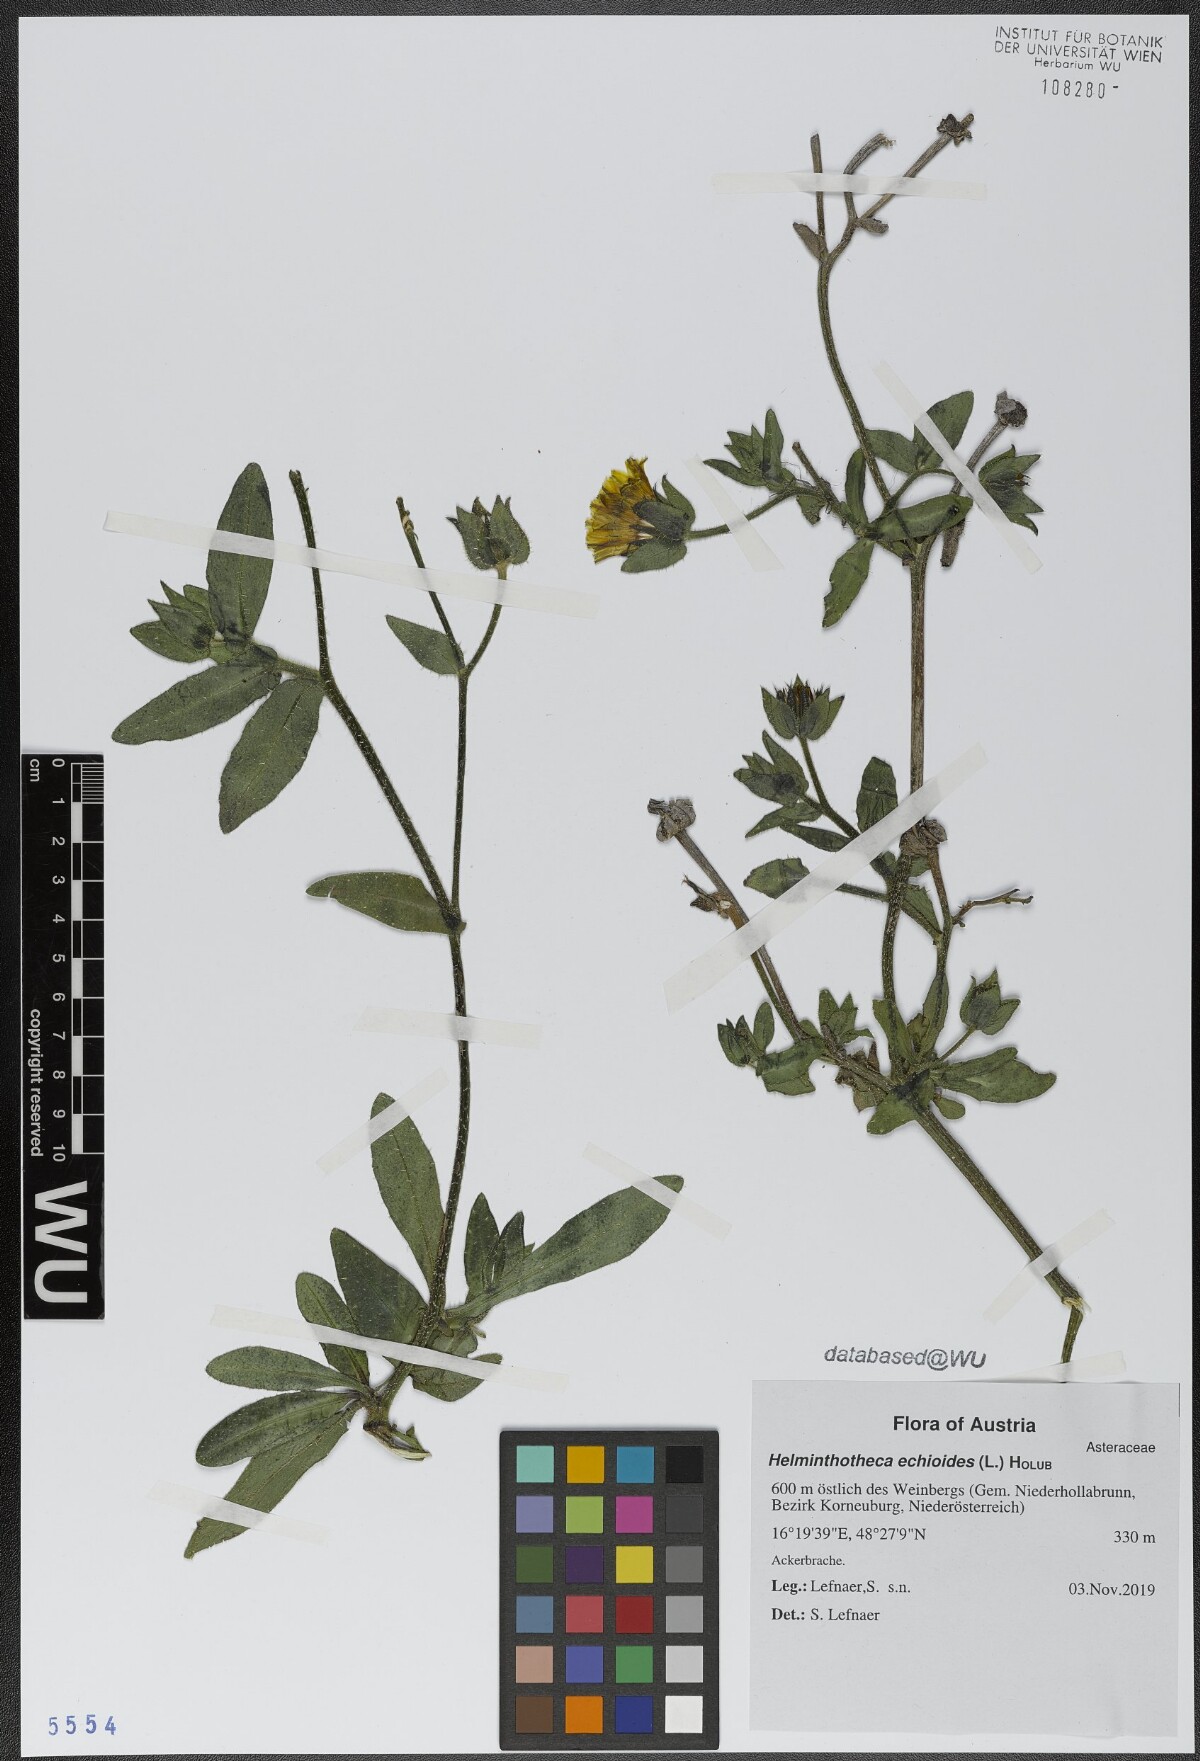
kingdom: Plantae
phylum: Tracheophyta
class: Magnoliopsida
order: Asterales
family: Asteraceae
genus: Helminthotheca
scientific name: Helminthotheca echioides
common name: Ox-tongue
